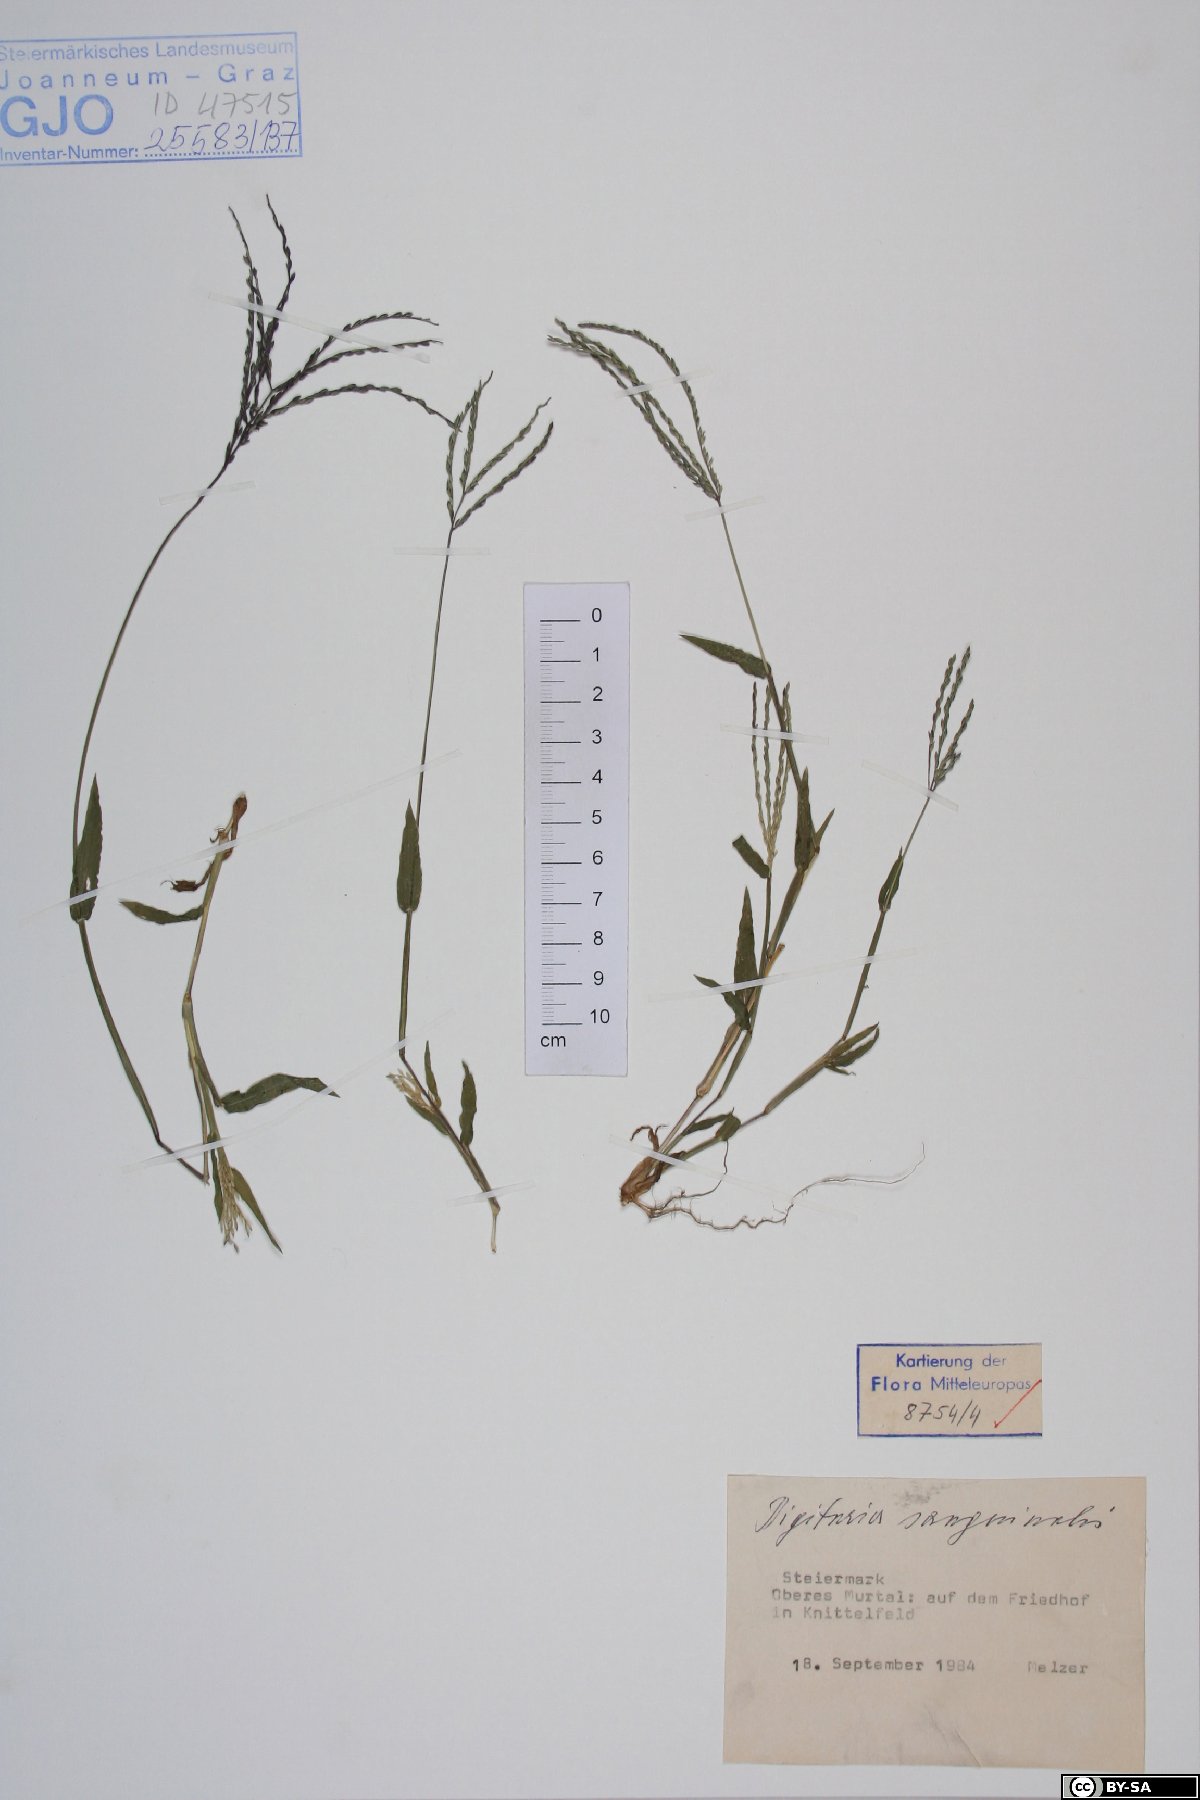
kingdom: Plantae
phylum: Tracheophyta
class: Liliopsida
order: Poales
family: Poaceae
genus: Digitaria
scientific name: Digitaria sanguinalis
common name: Hairy crabgrass
